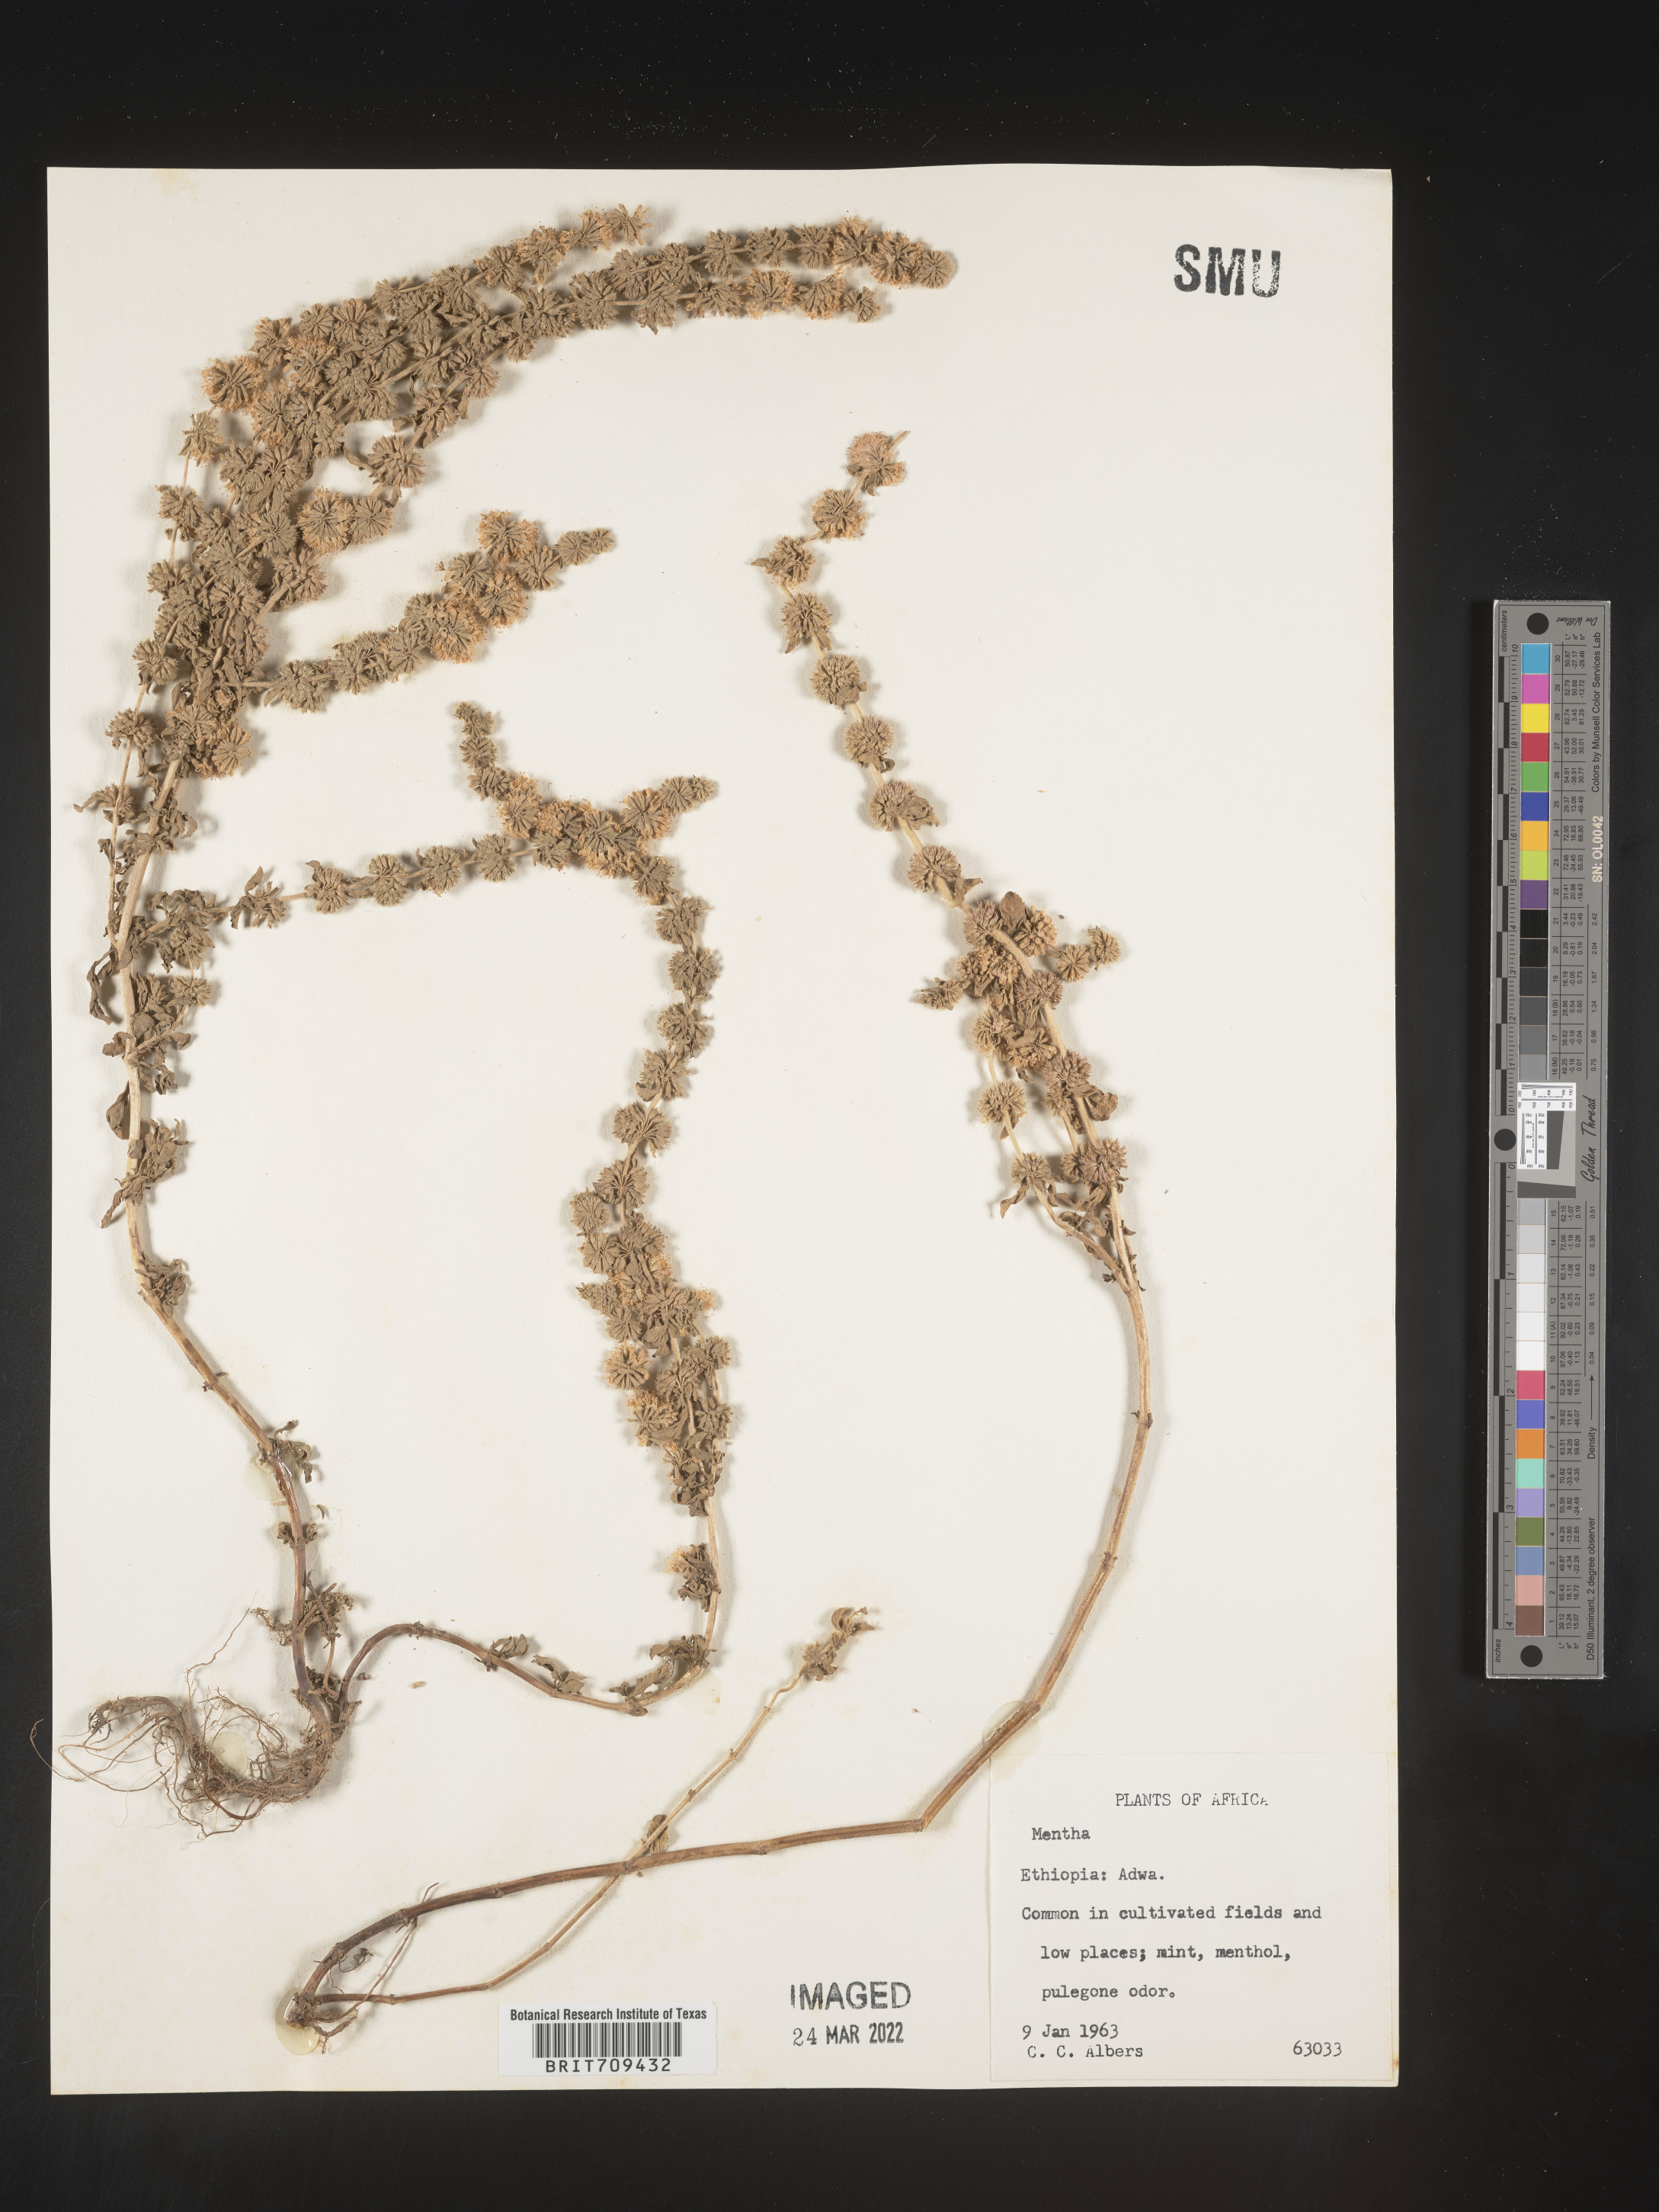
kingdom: Plantae
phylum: Tracheophyta
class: Magnoliopsida
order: Lamiales
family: Lamiaceae
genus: Mentha
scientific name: Mentha
